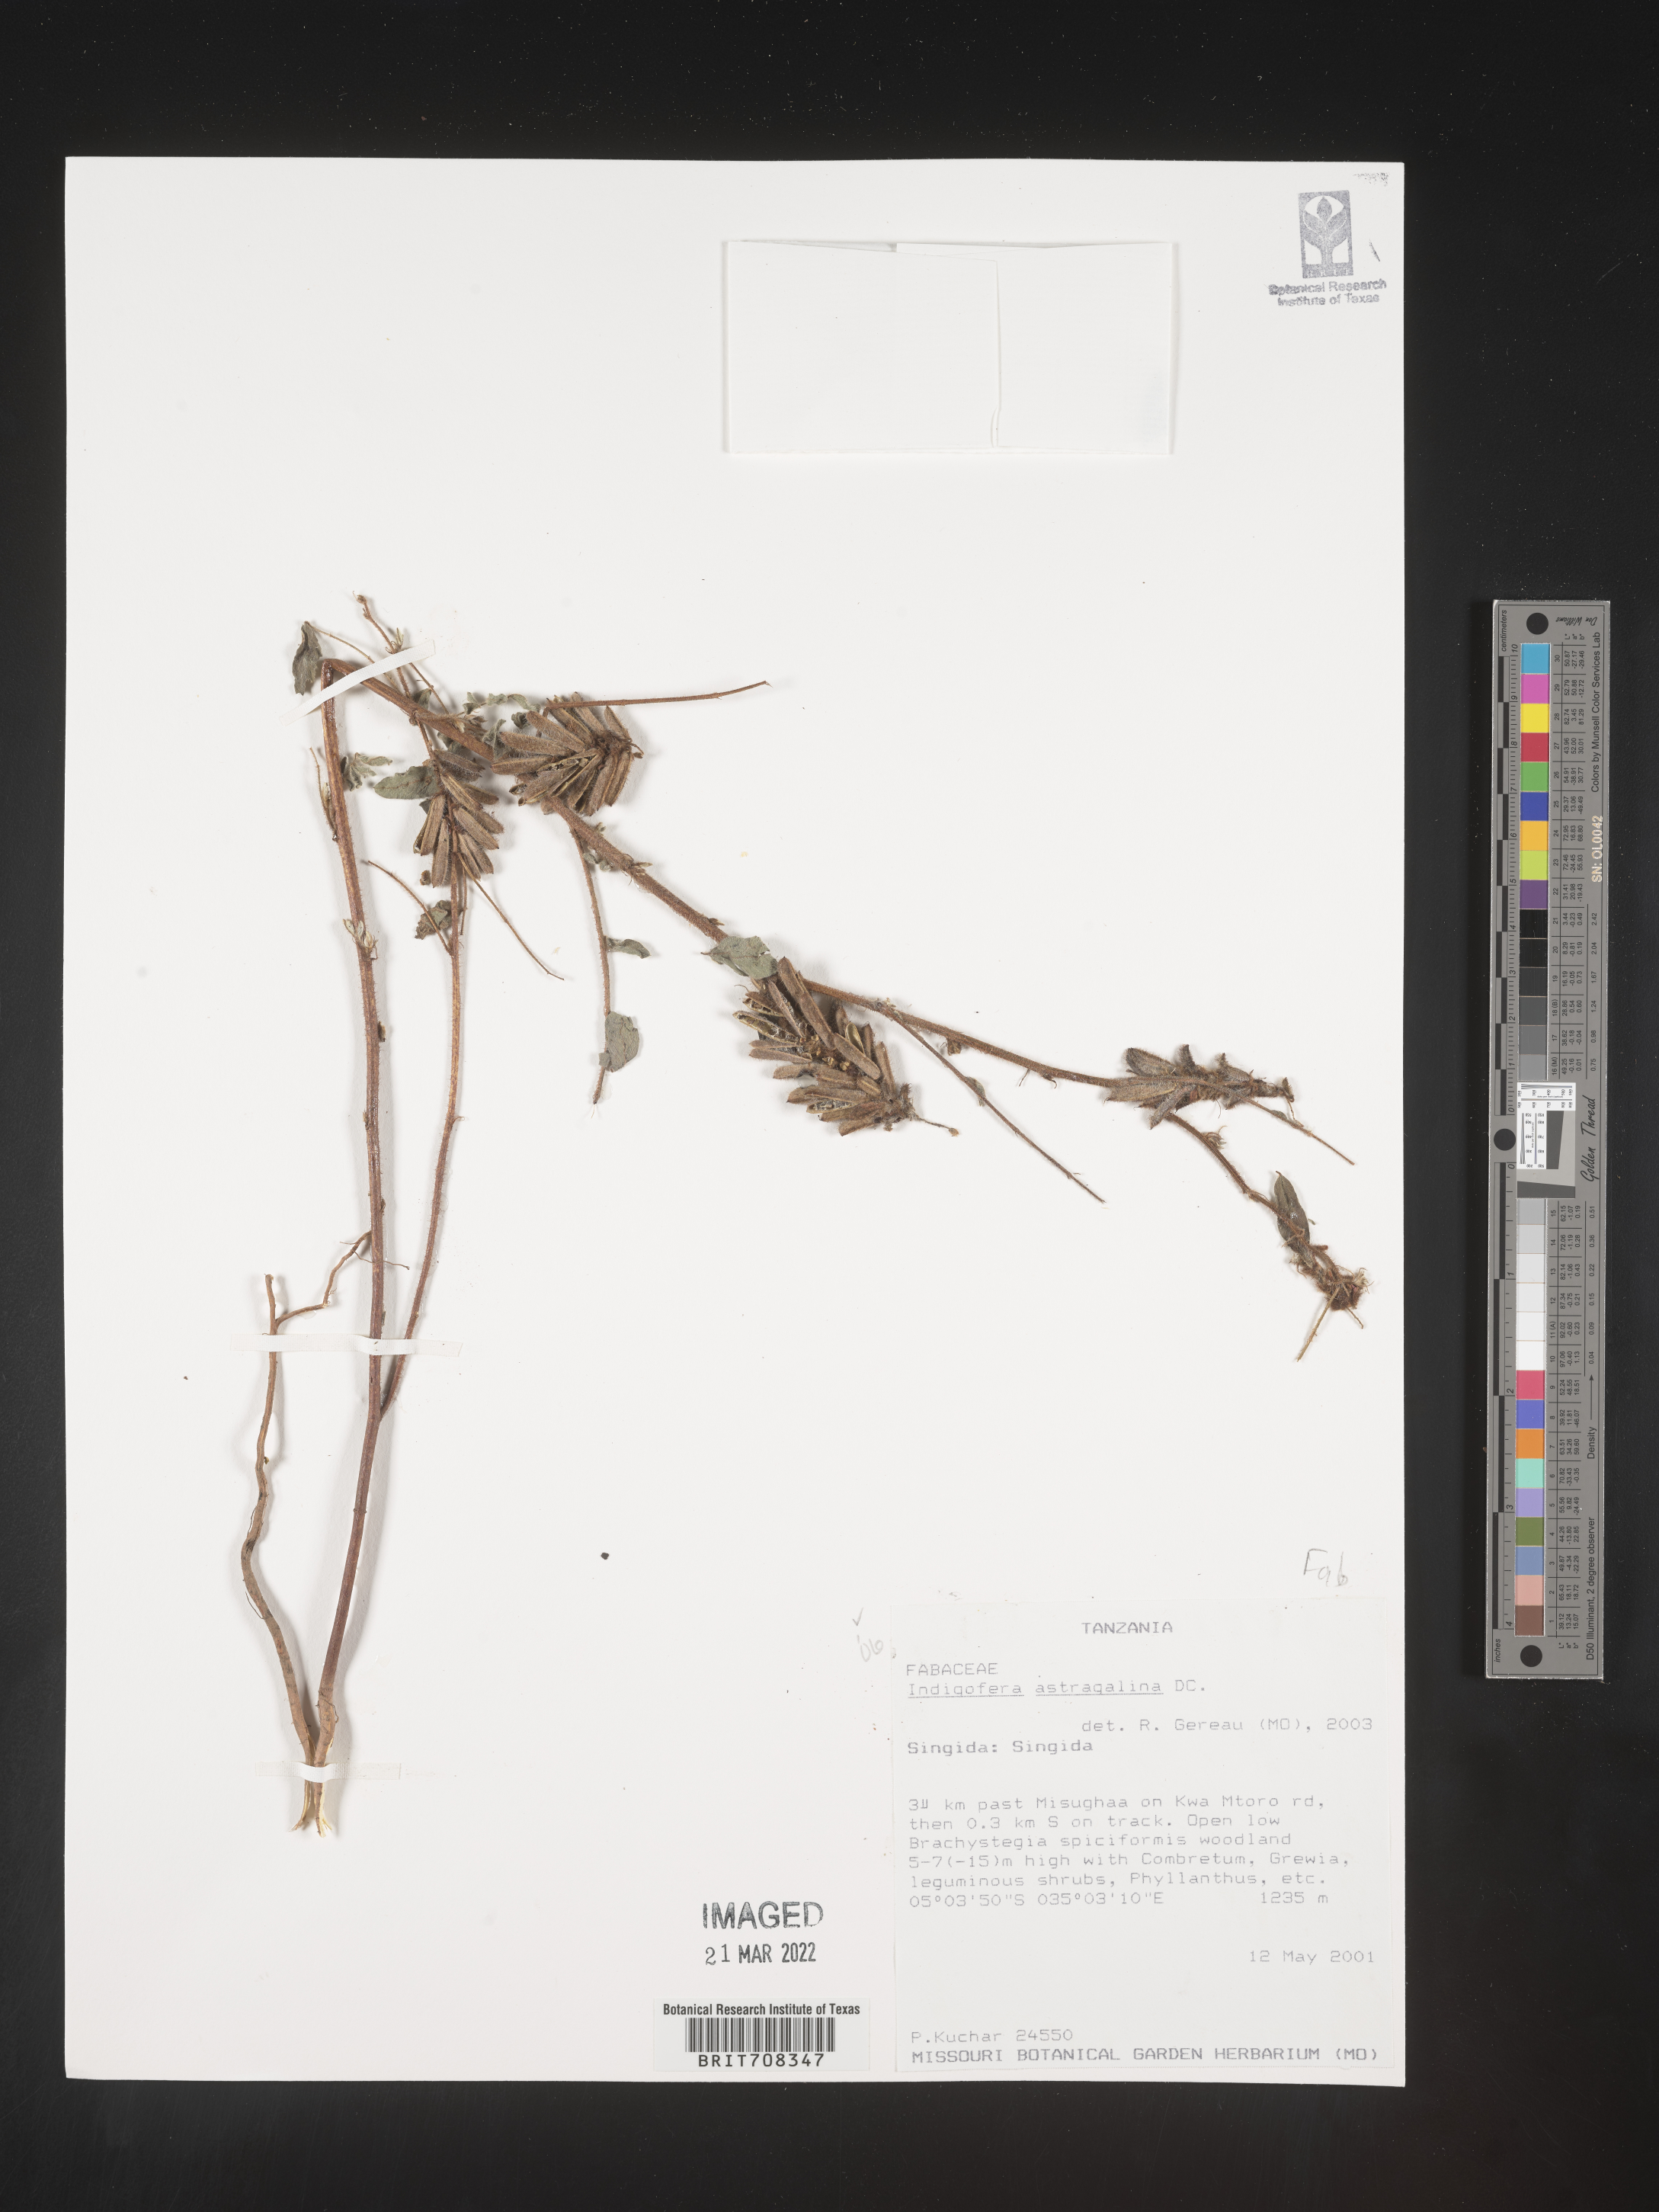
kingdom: Plantae
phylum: Tracheophyta
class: Magnoliopsida
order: Fabales
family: Fabaceae
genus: Indigofera
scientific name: Indigofera
